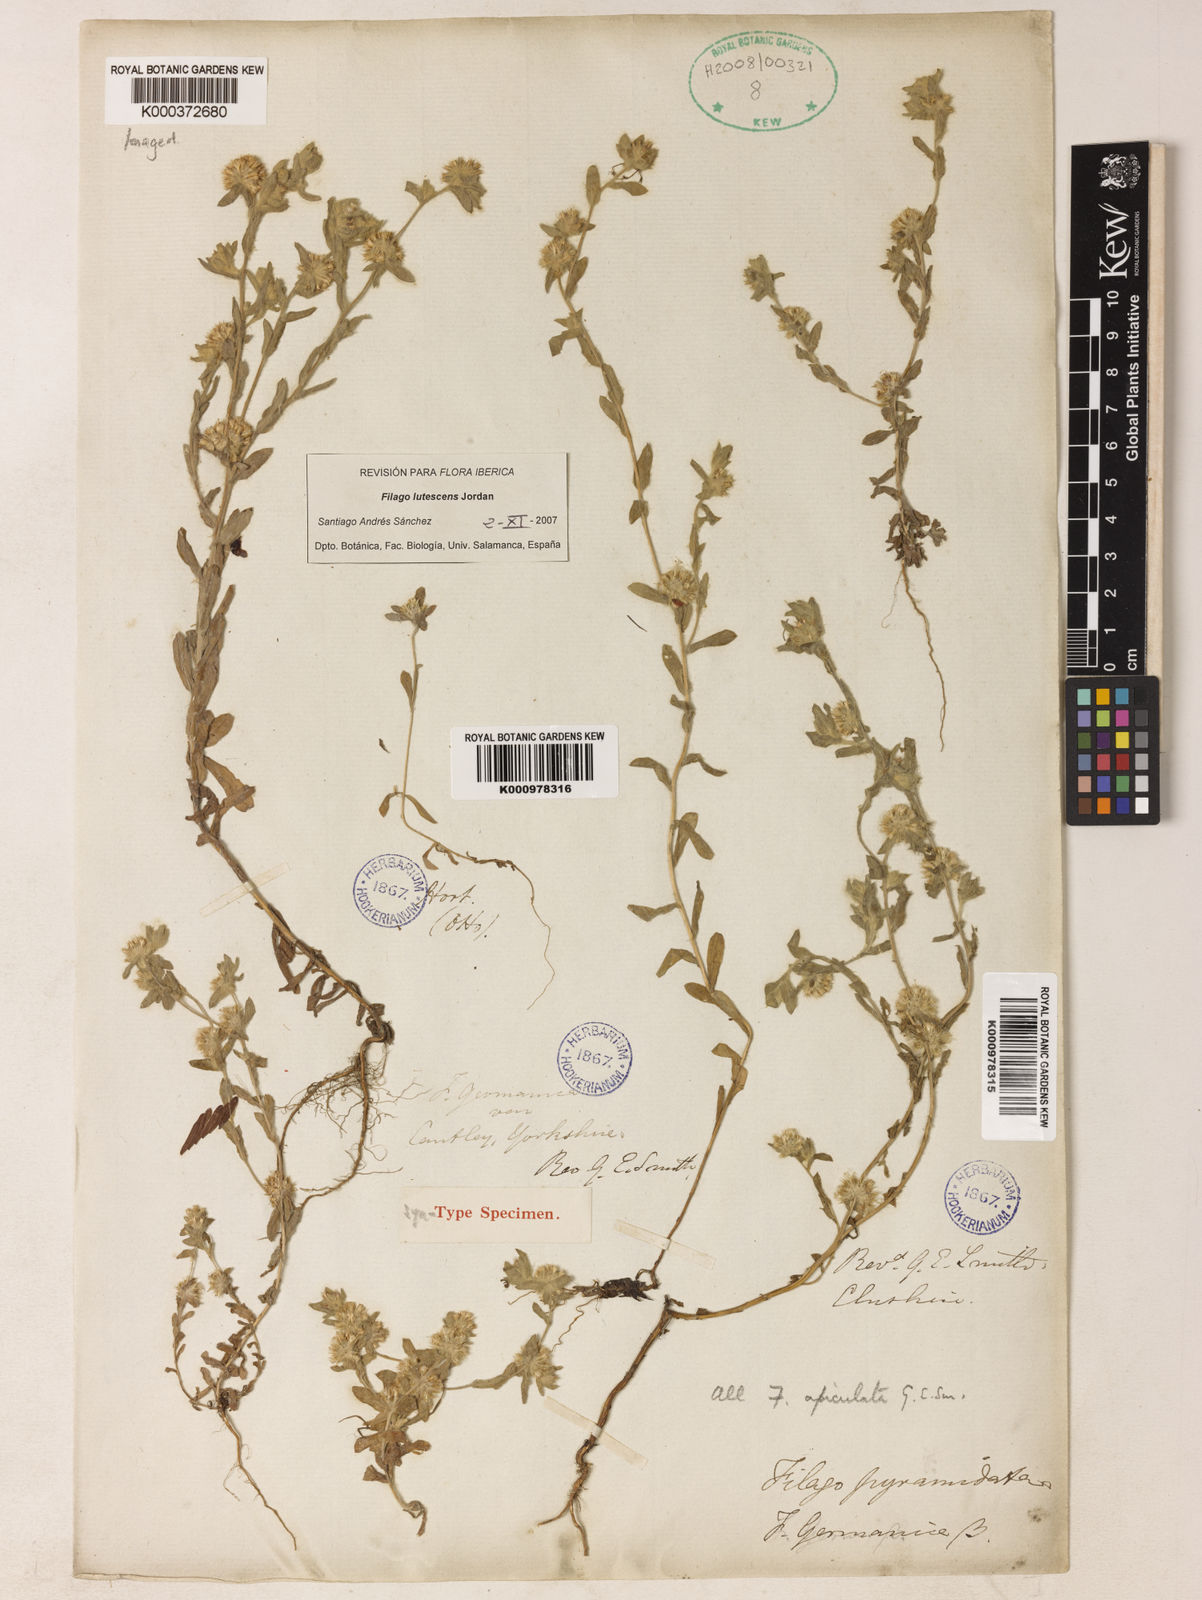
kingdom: Plantae
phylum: Tracheophyta
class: Magnoliopsida
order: Asterales
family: Asteraceae
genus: Filago
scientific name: Filago lutescens
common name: Red-tipped cudweed
